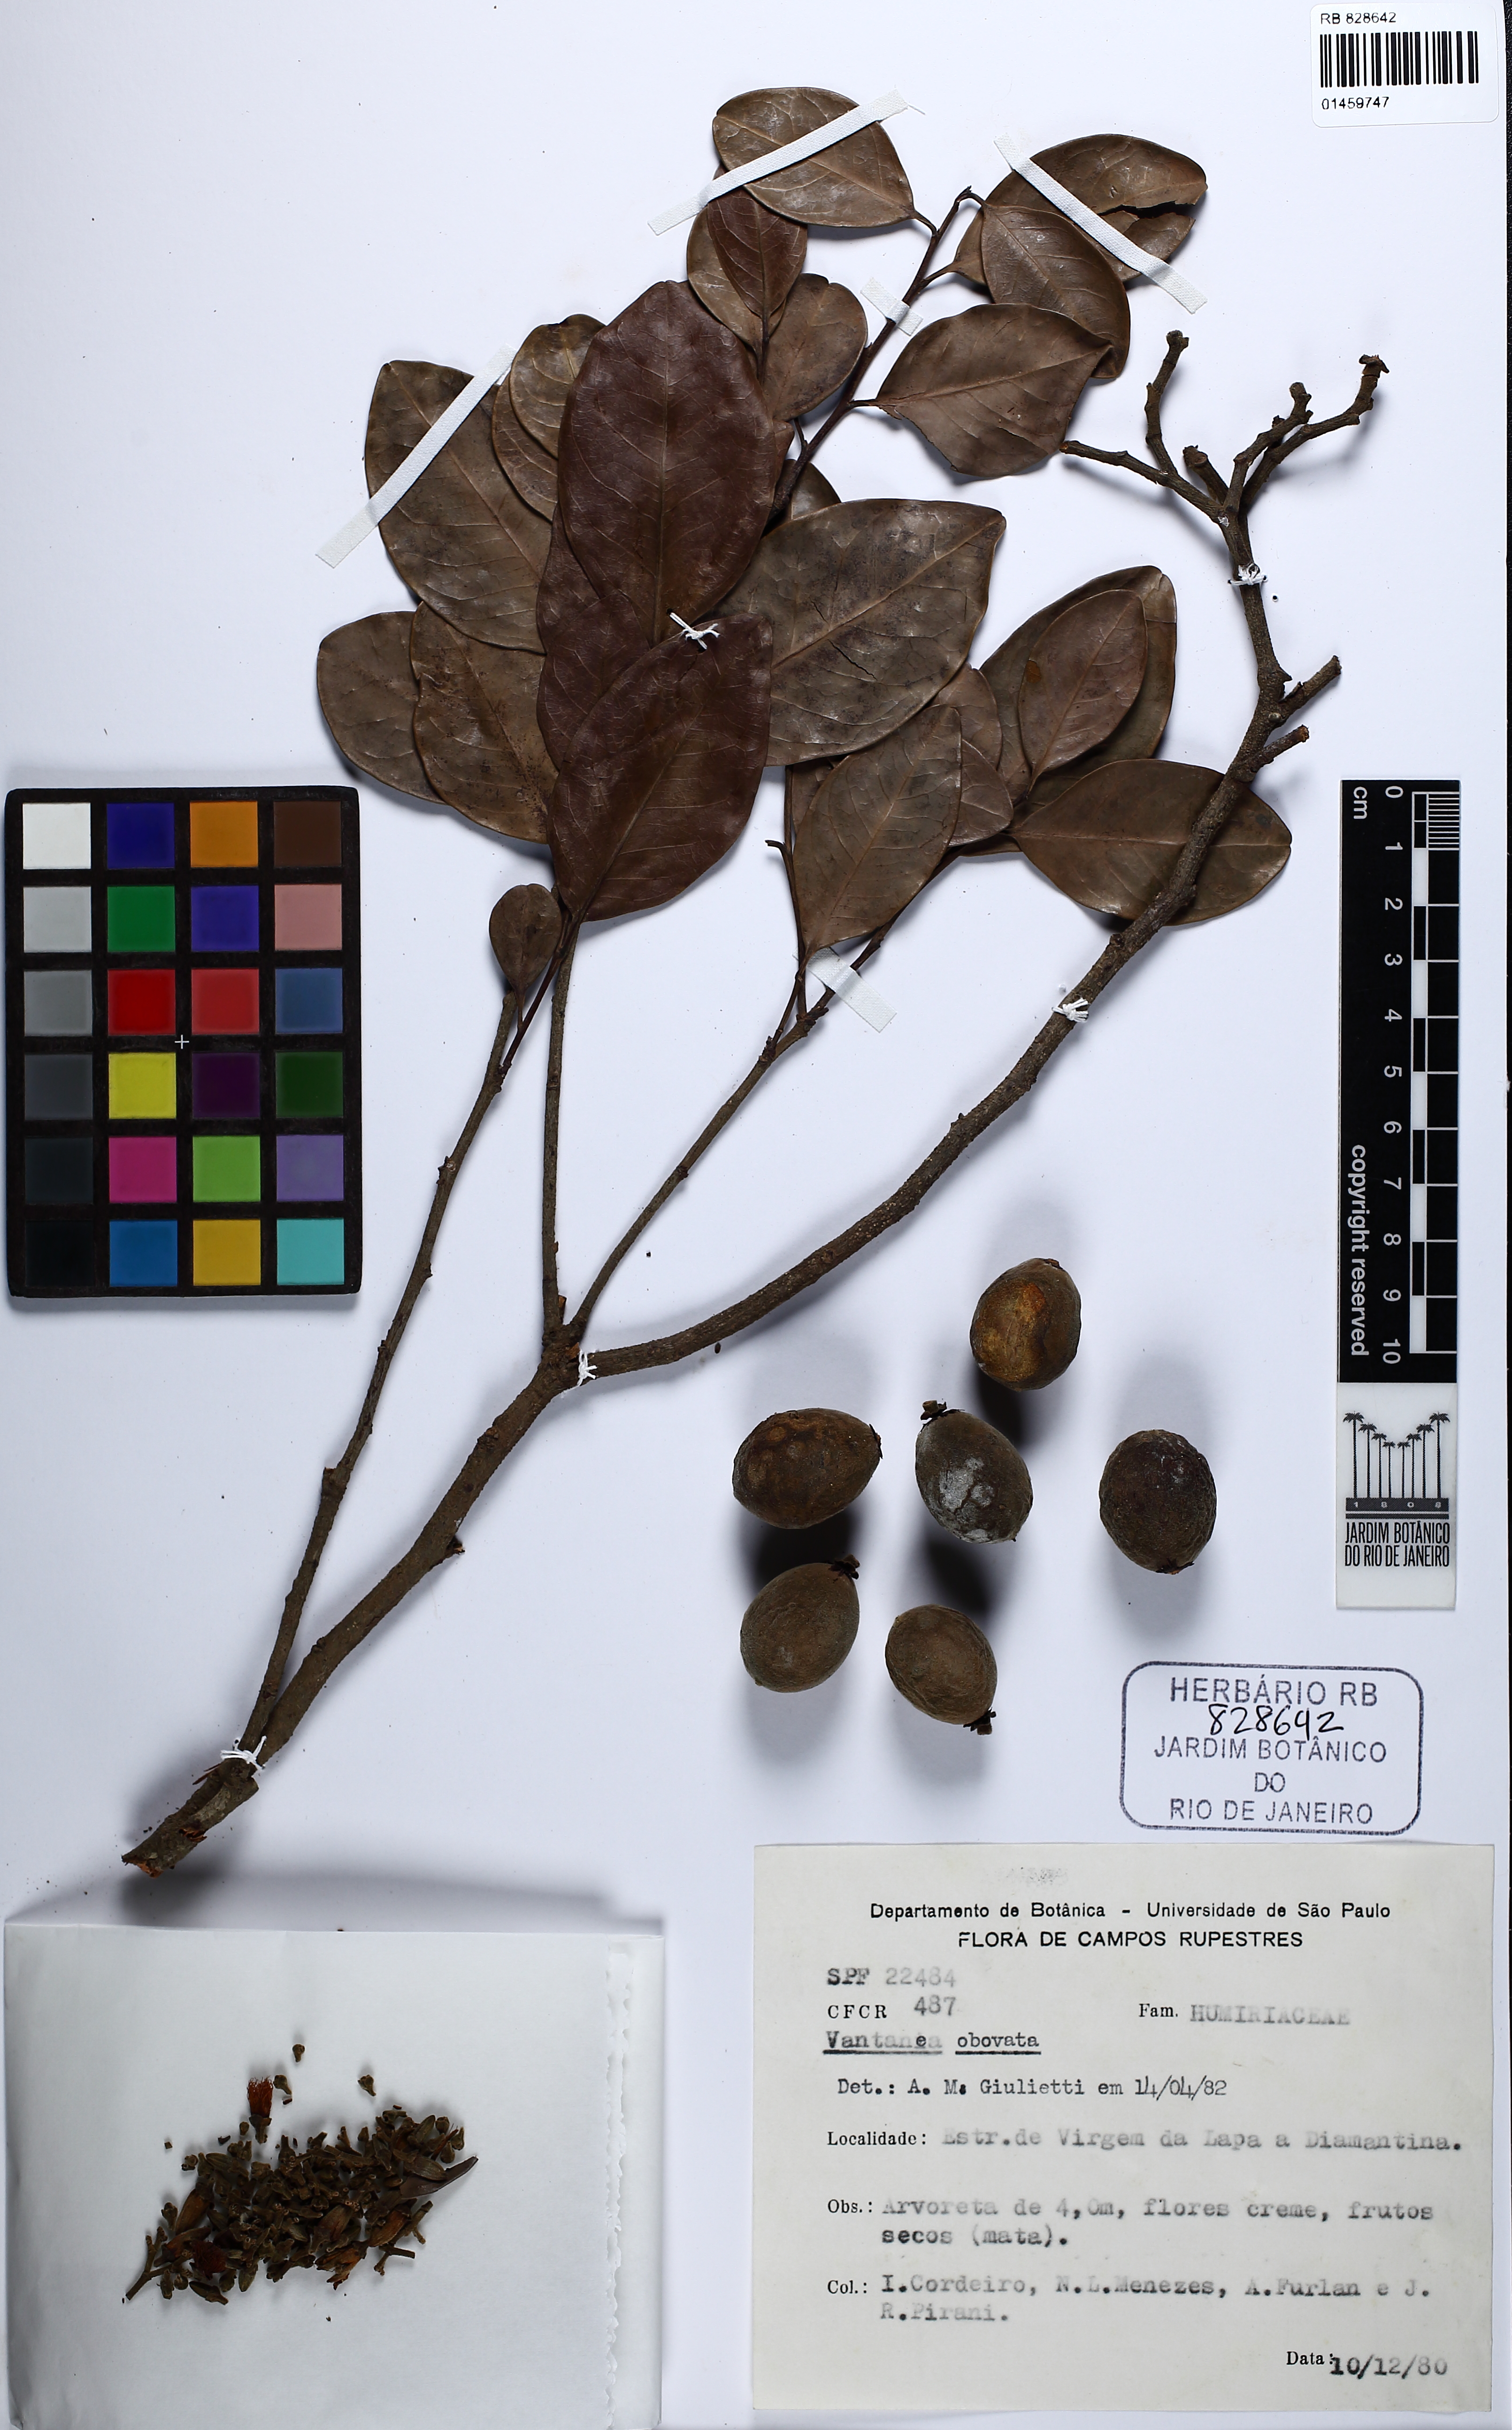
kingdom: Plantae
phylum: Tracheophyta
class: Magnoliopsida
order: Malpighiales
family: Humiriaceae
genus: Vantanea
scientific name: Vantanea obovata
